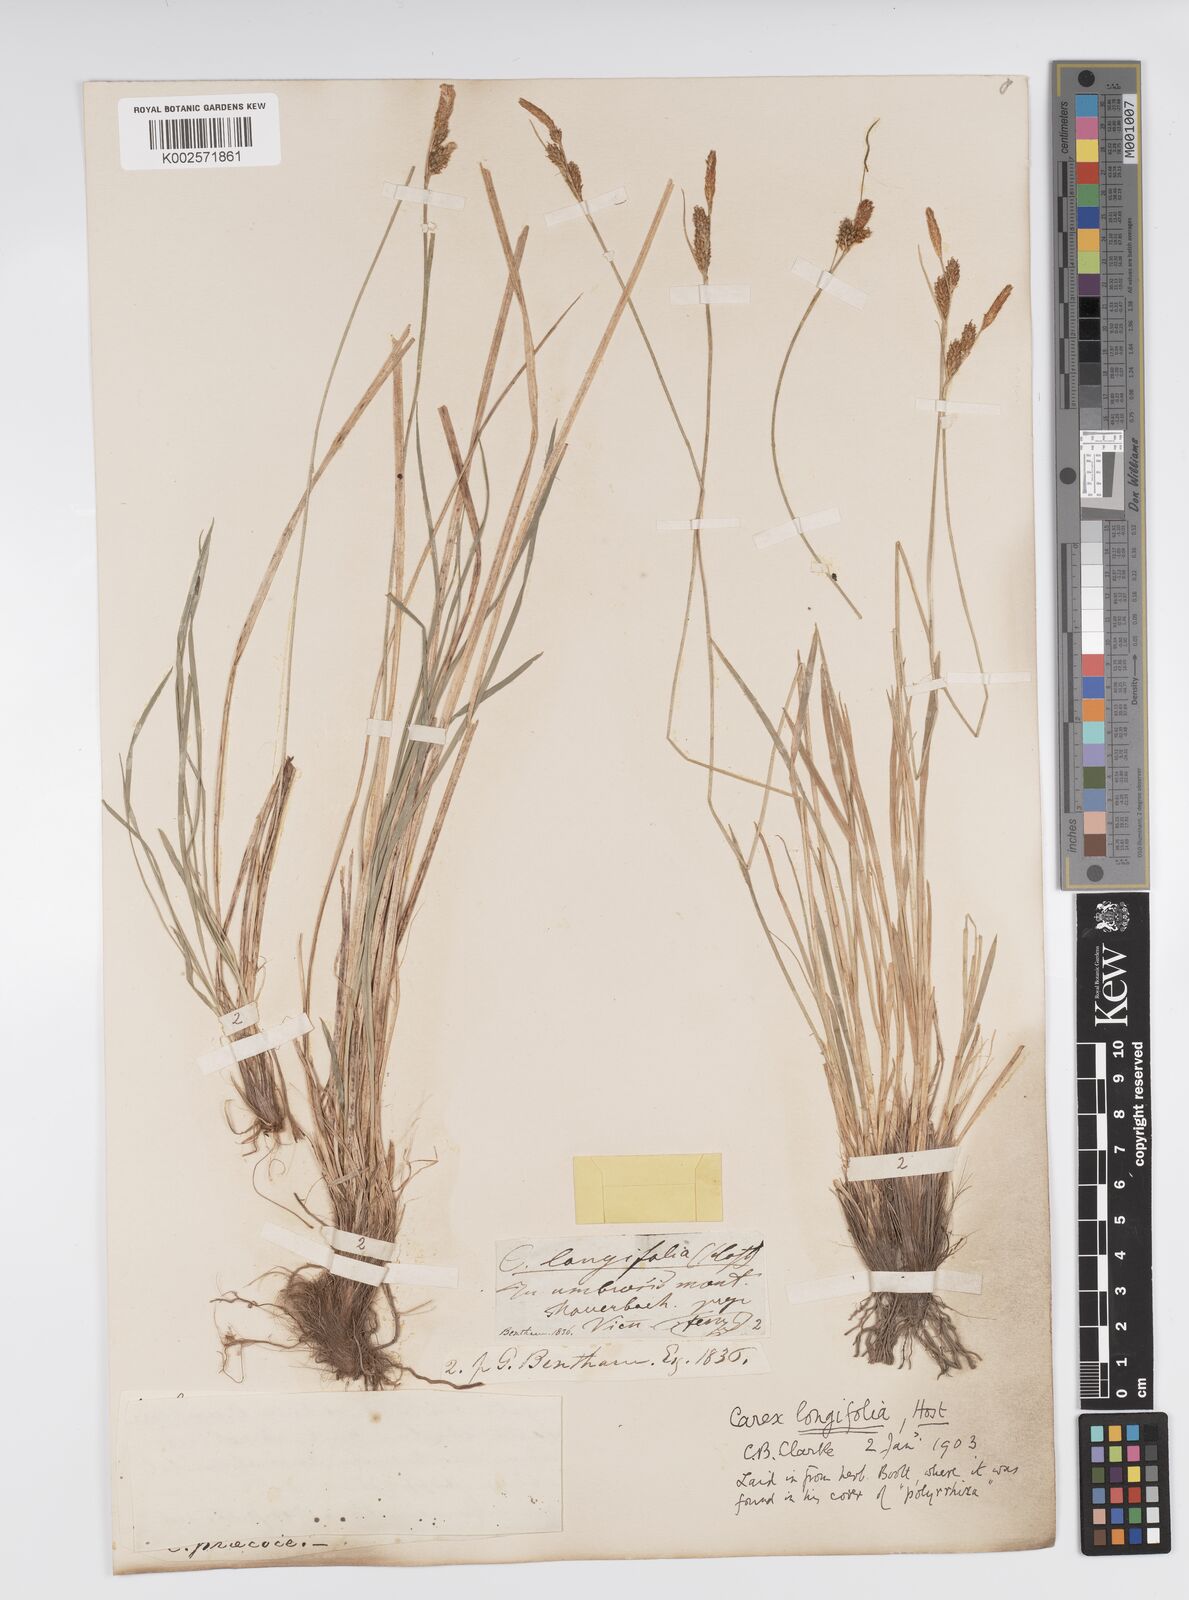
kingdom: Plantae
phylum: Tracheophyta
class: Liliopsida
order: Poales
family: Cyperaceae
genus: Carex
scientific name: Carex umbrosa
